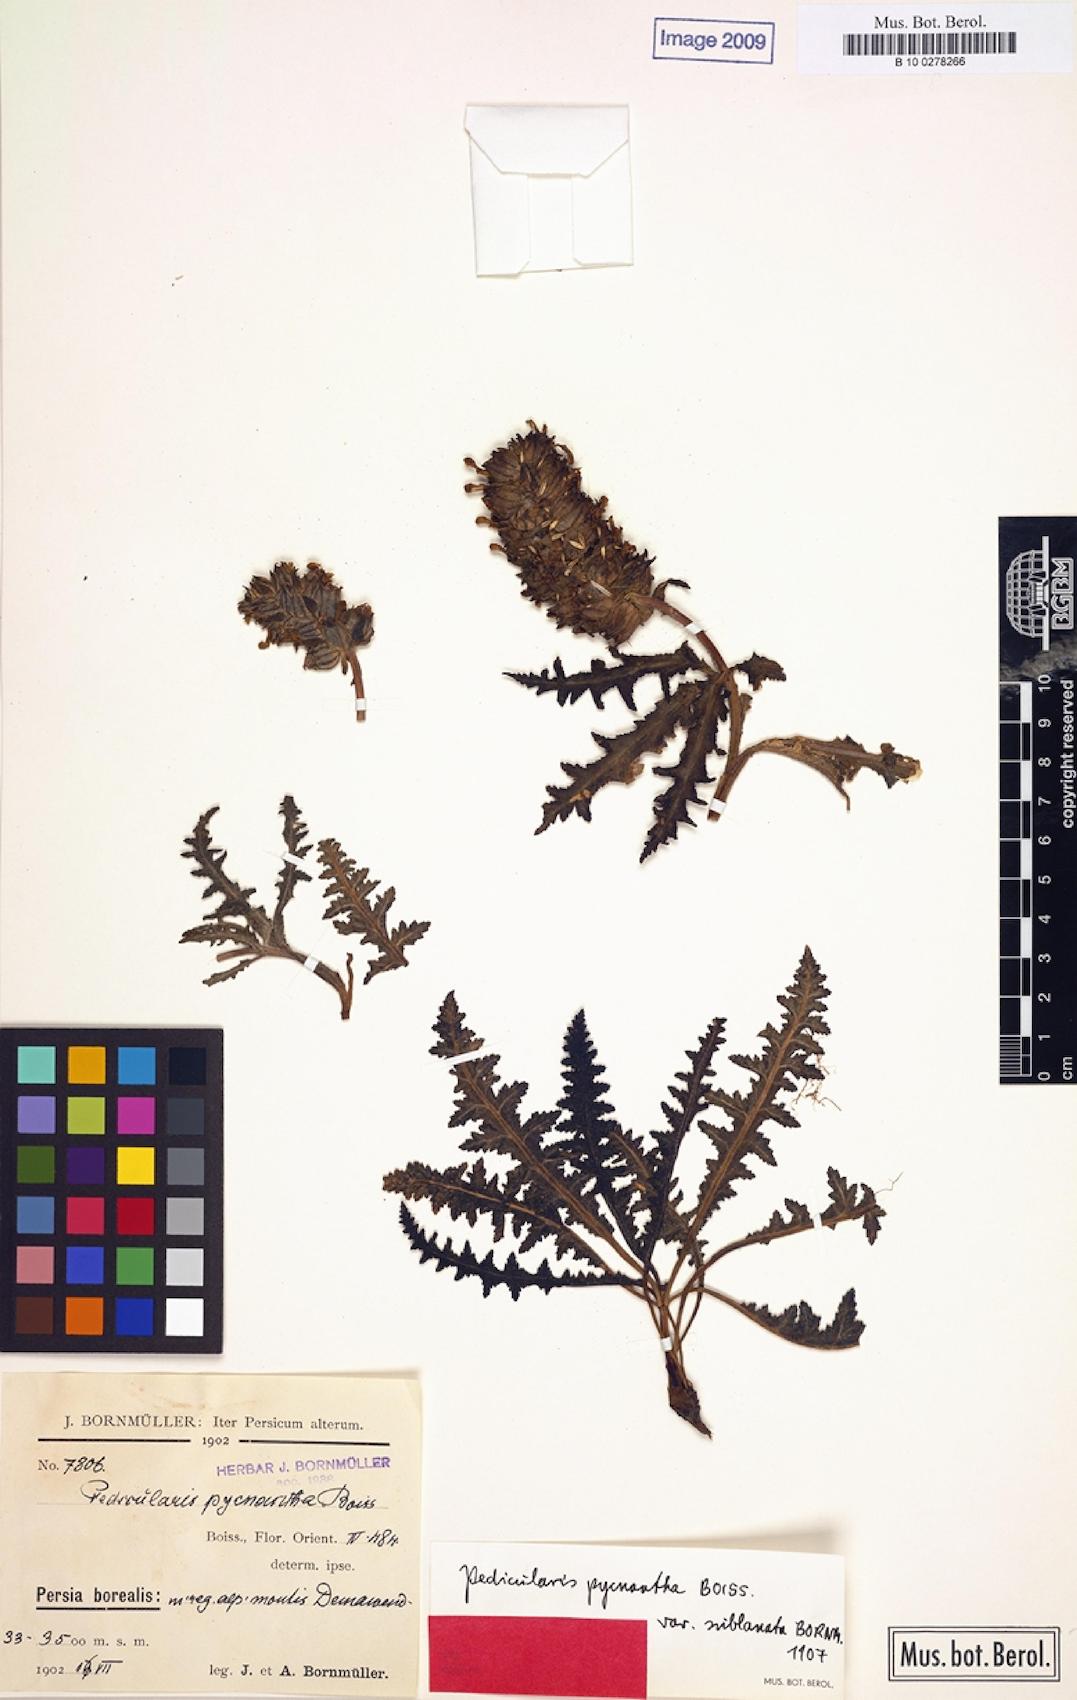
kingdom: Plantae
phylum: Tracheophyta
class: Magnoliopsida
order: Lamiales
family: Orobanchaceae
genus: Pedicularis
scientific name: Pedicularis pycnantha
